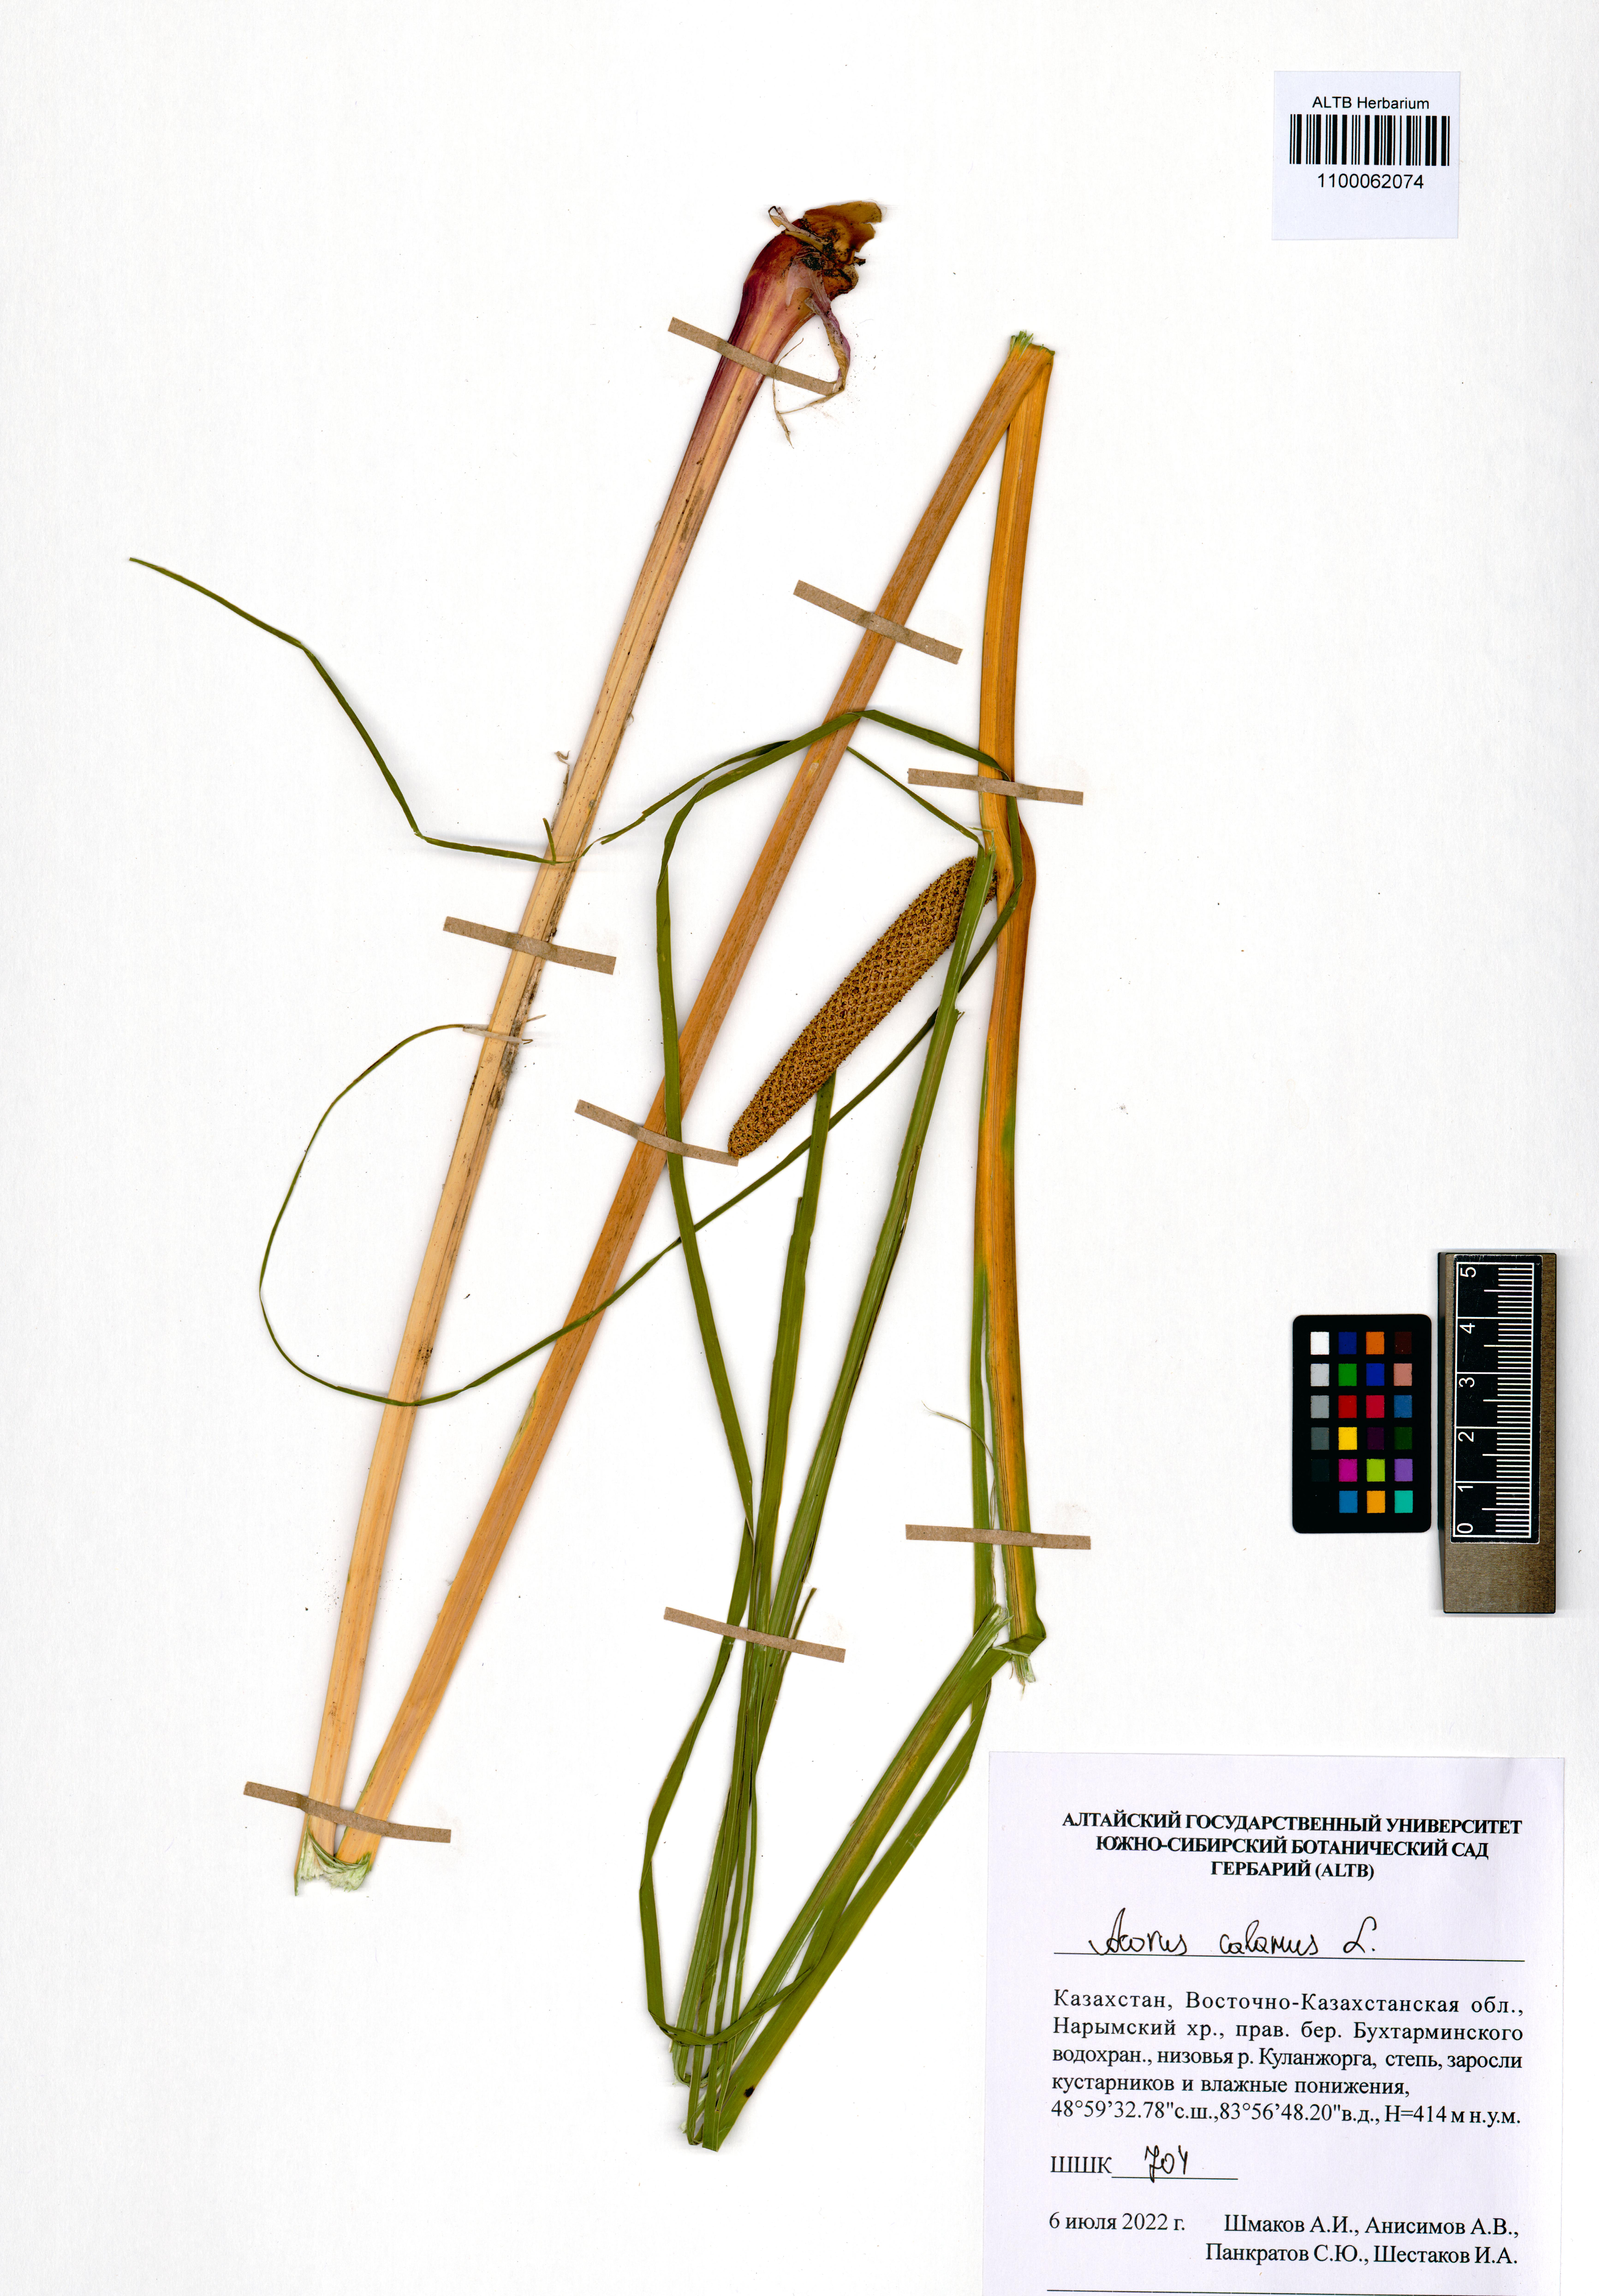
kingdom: Plantae
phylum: Tracheophyta
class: Liliopsida
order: Acorales
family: Acoraceae
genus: Acorus
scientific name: Acorus calamus
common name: Sweet-flag
